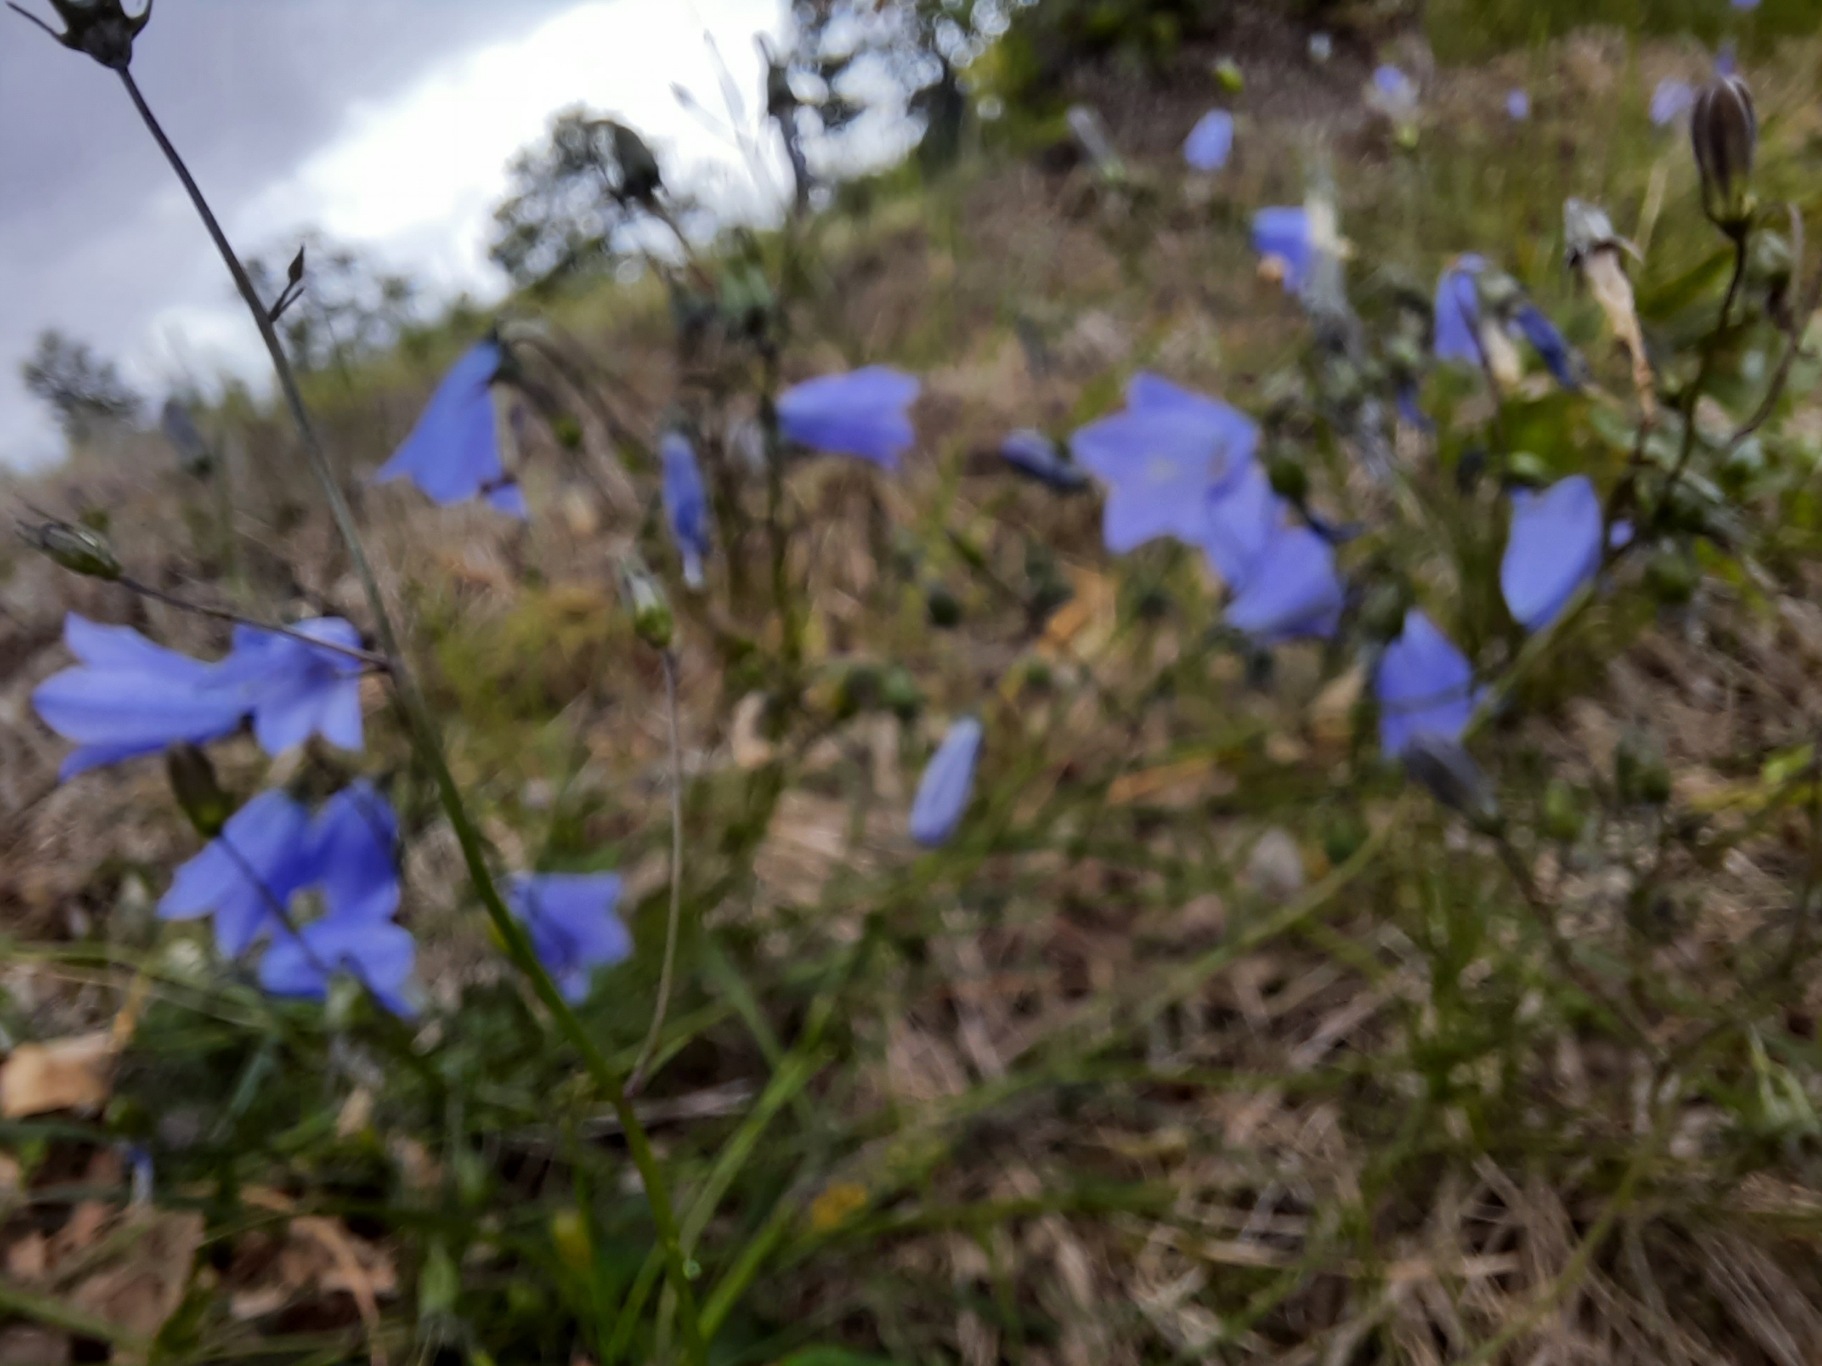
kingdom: Plantae
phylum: Tracheophyta
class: Magnoliopsida
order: Asterales
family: Campanulaceae
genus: Campanula
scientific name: Campanula rotundifolia
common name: Liden klokke
